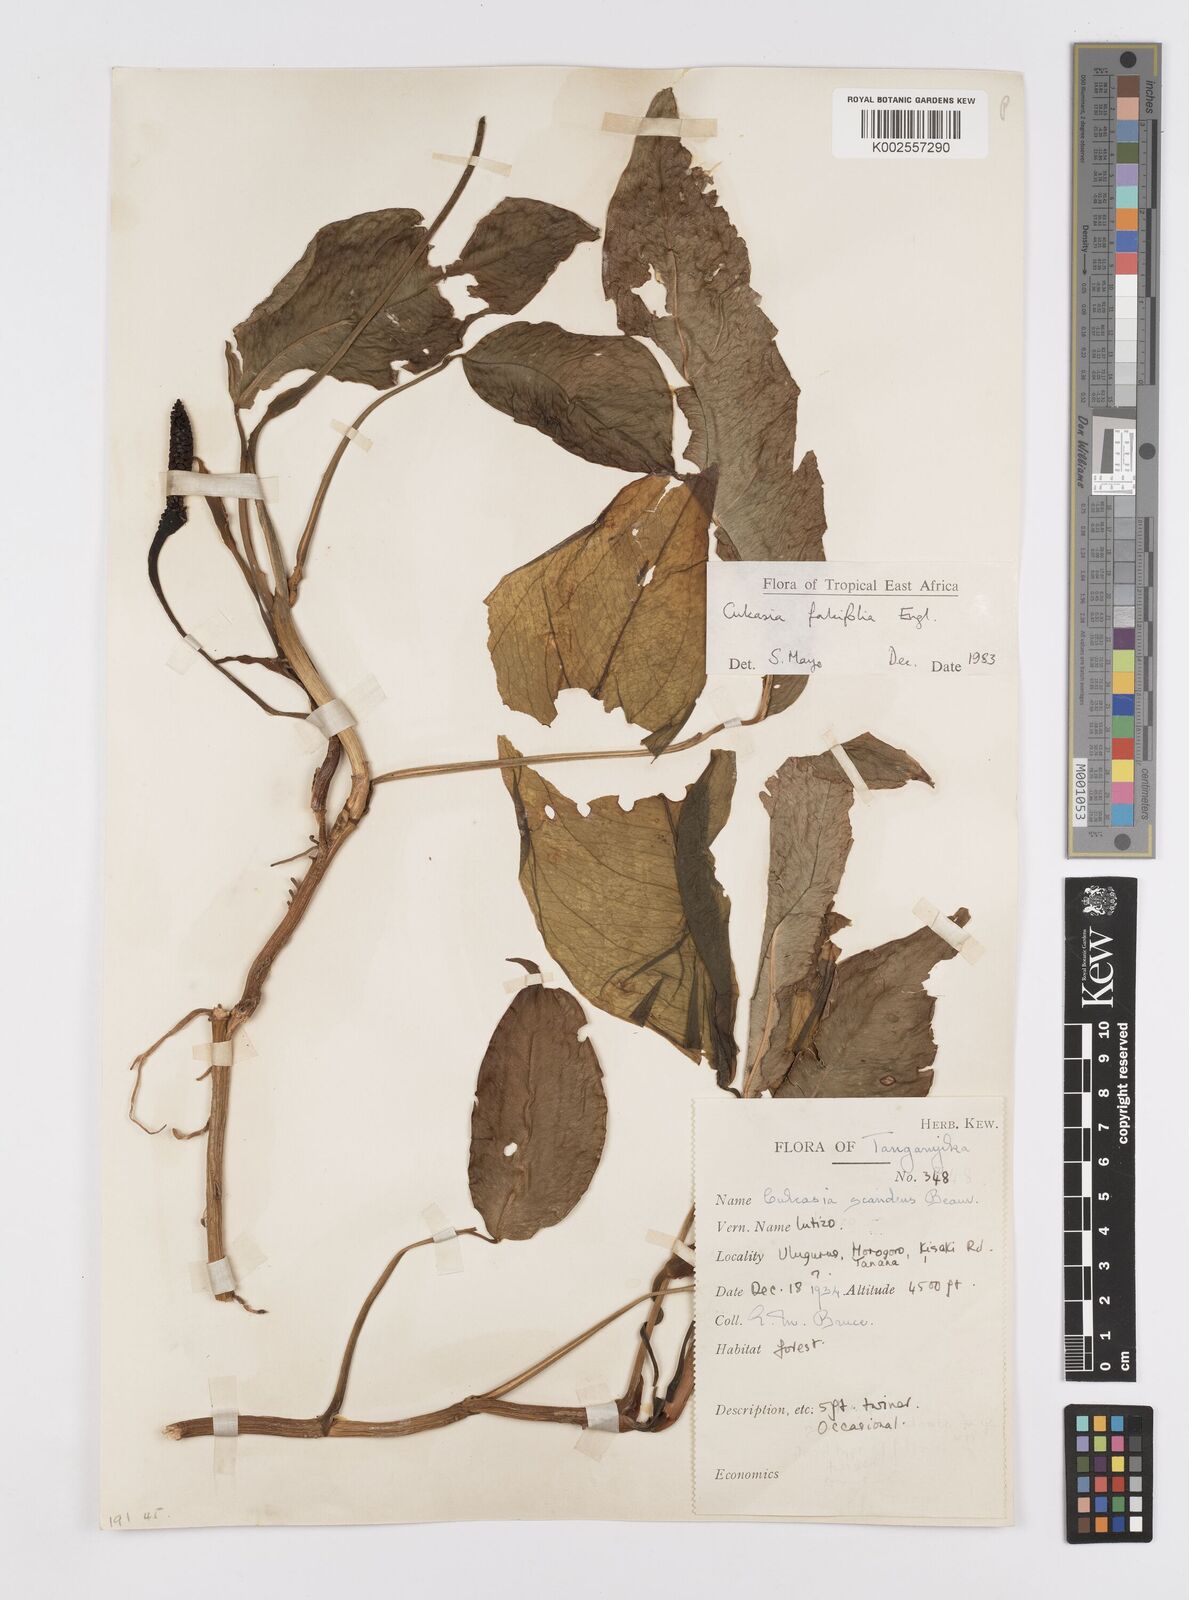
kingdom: Plantae
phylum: Tracheophyta
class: Liliopsida
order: Alismatales
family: Araceae
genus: Culcasia
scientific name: Culcasia falcifolia
